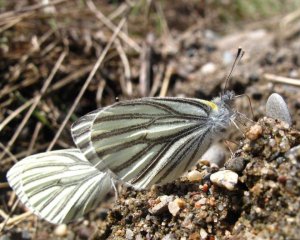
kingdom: Animalia
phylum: Arthropoda
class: Insecta
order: Lepidoptera
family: Pieridae
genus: Pieris
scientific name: Pieris oleracea
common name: Mustard White
